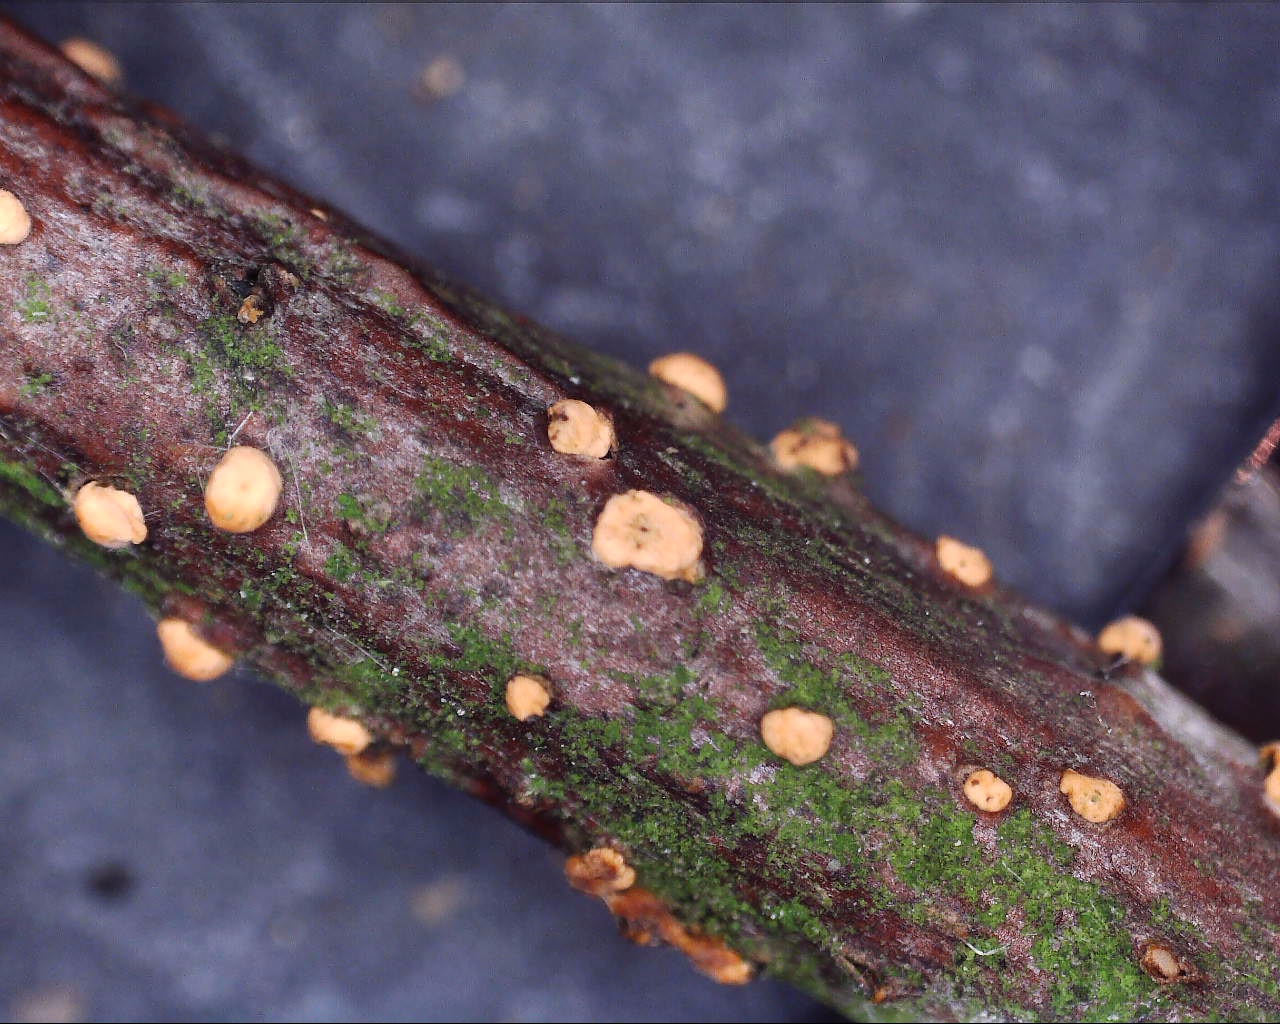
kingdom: Fungi
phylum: Ascomycota
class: Sordariomycetes
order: Hypocreales
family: Nectriaceae
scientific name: Nectriaceae
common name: cinnobersvampfamilien
